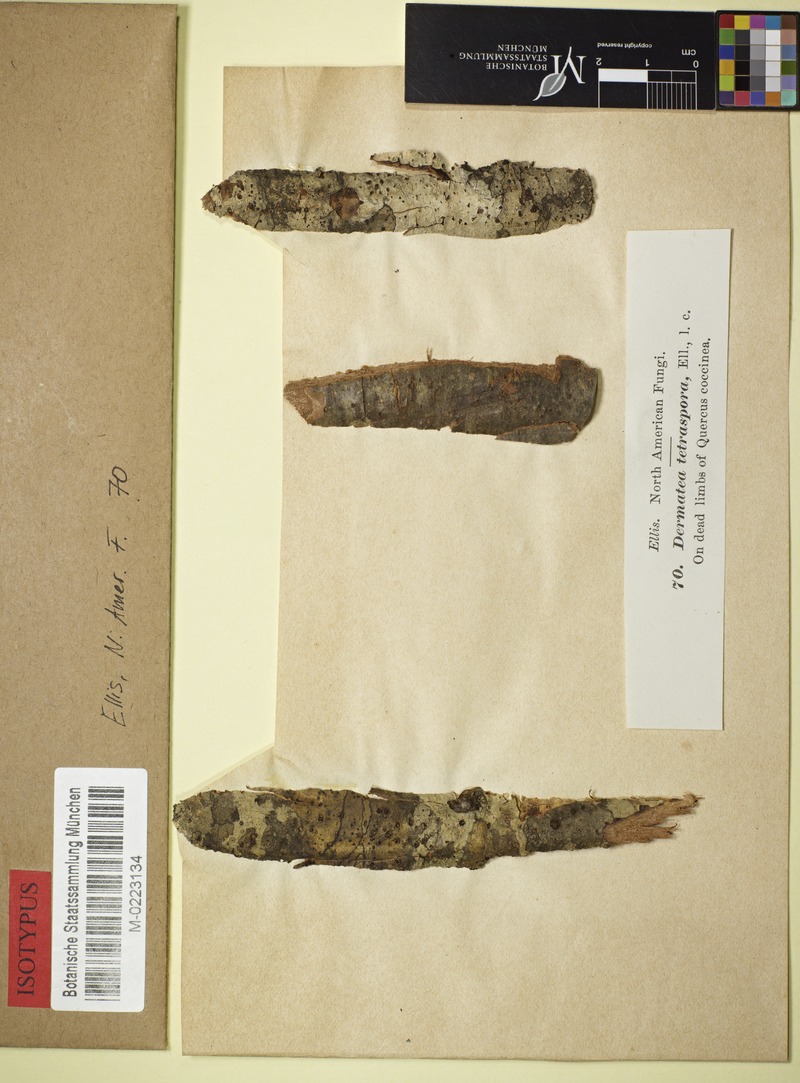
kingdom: Fungi
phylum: Ascomycota
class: Leotiomycetes
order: Helotiales
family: Cenangiaceae
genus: Mycosphaerangium
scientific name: Mycosphaerangium tetrasporum
